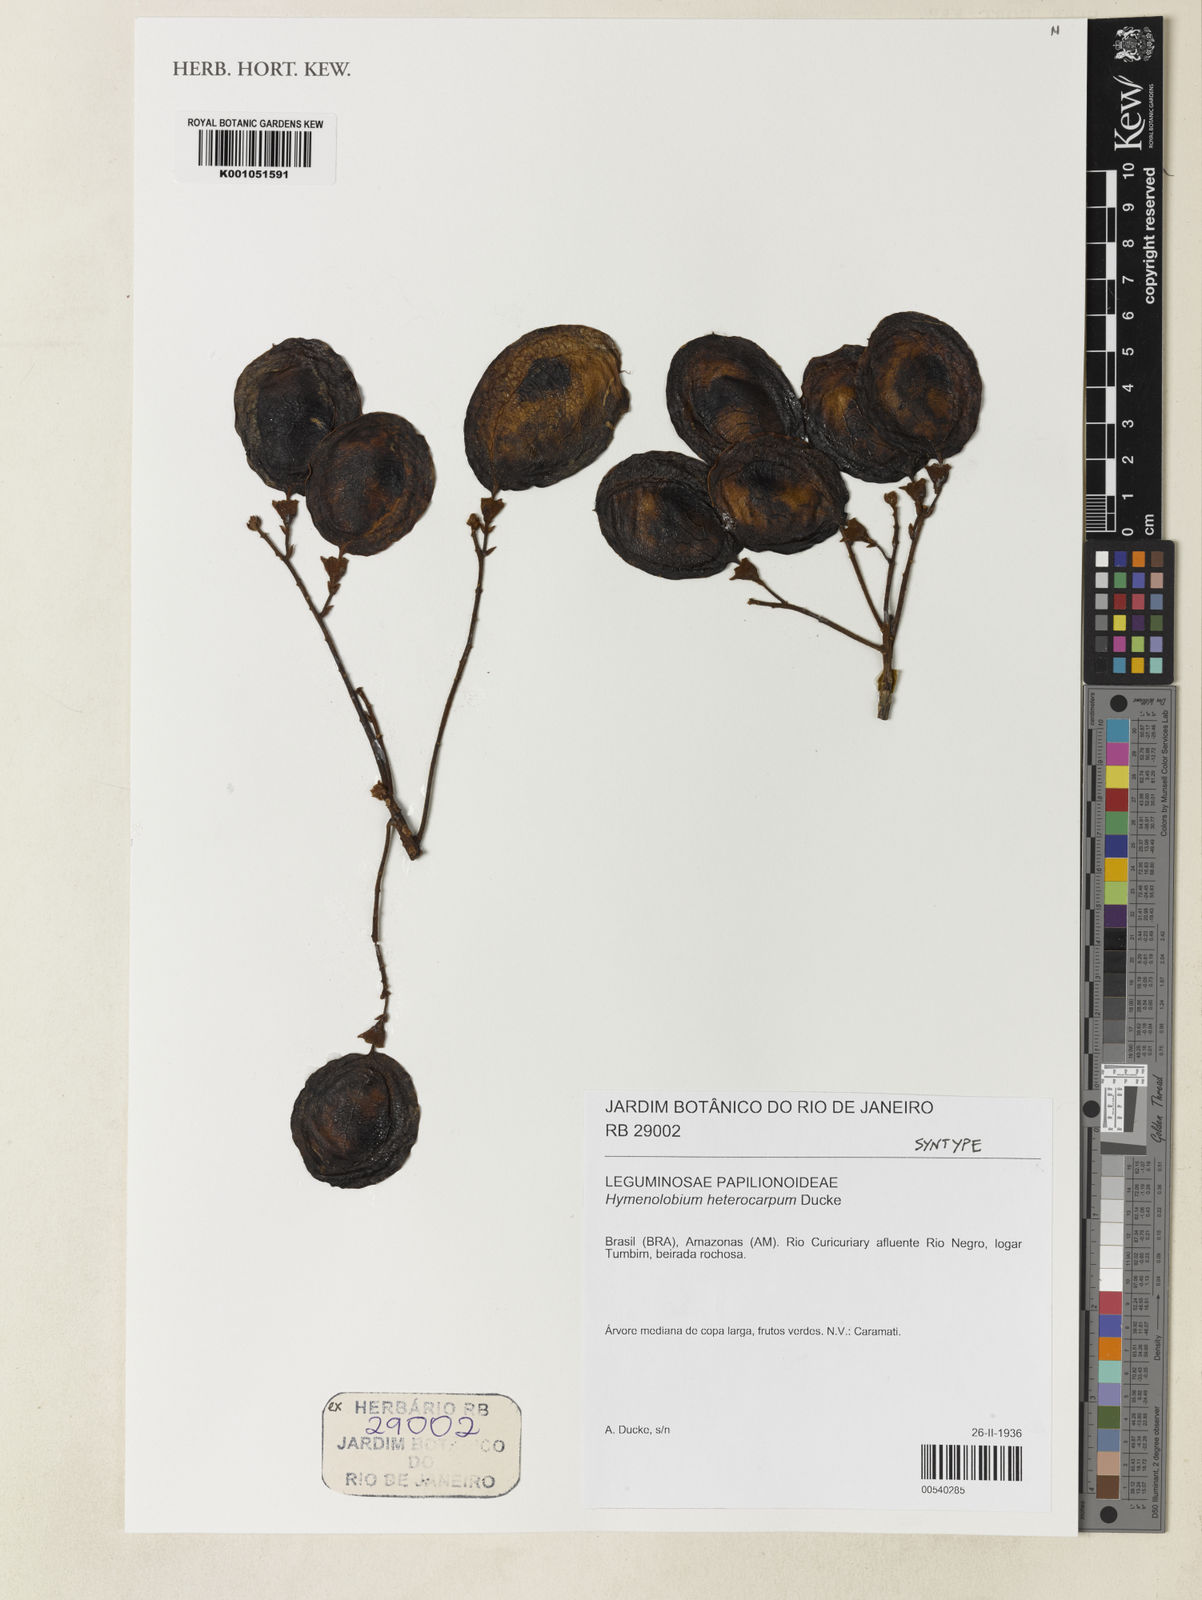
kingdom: Plantae
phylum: Tracheophyta
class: Magnoliopsida
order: Fabales
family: Fabaceae
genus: Hymenolobium
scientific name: Hymenolobium heterocarpum
